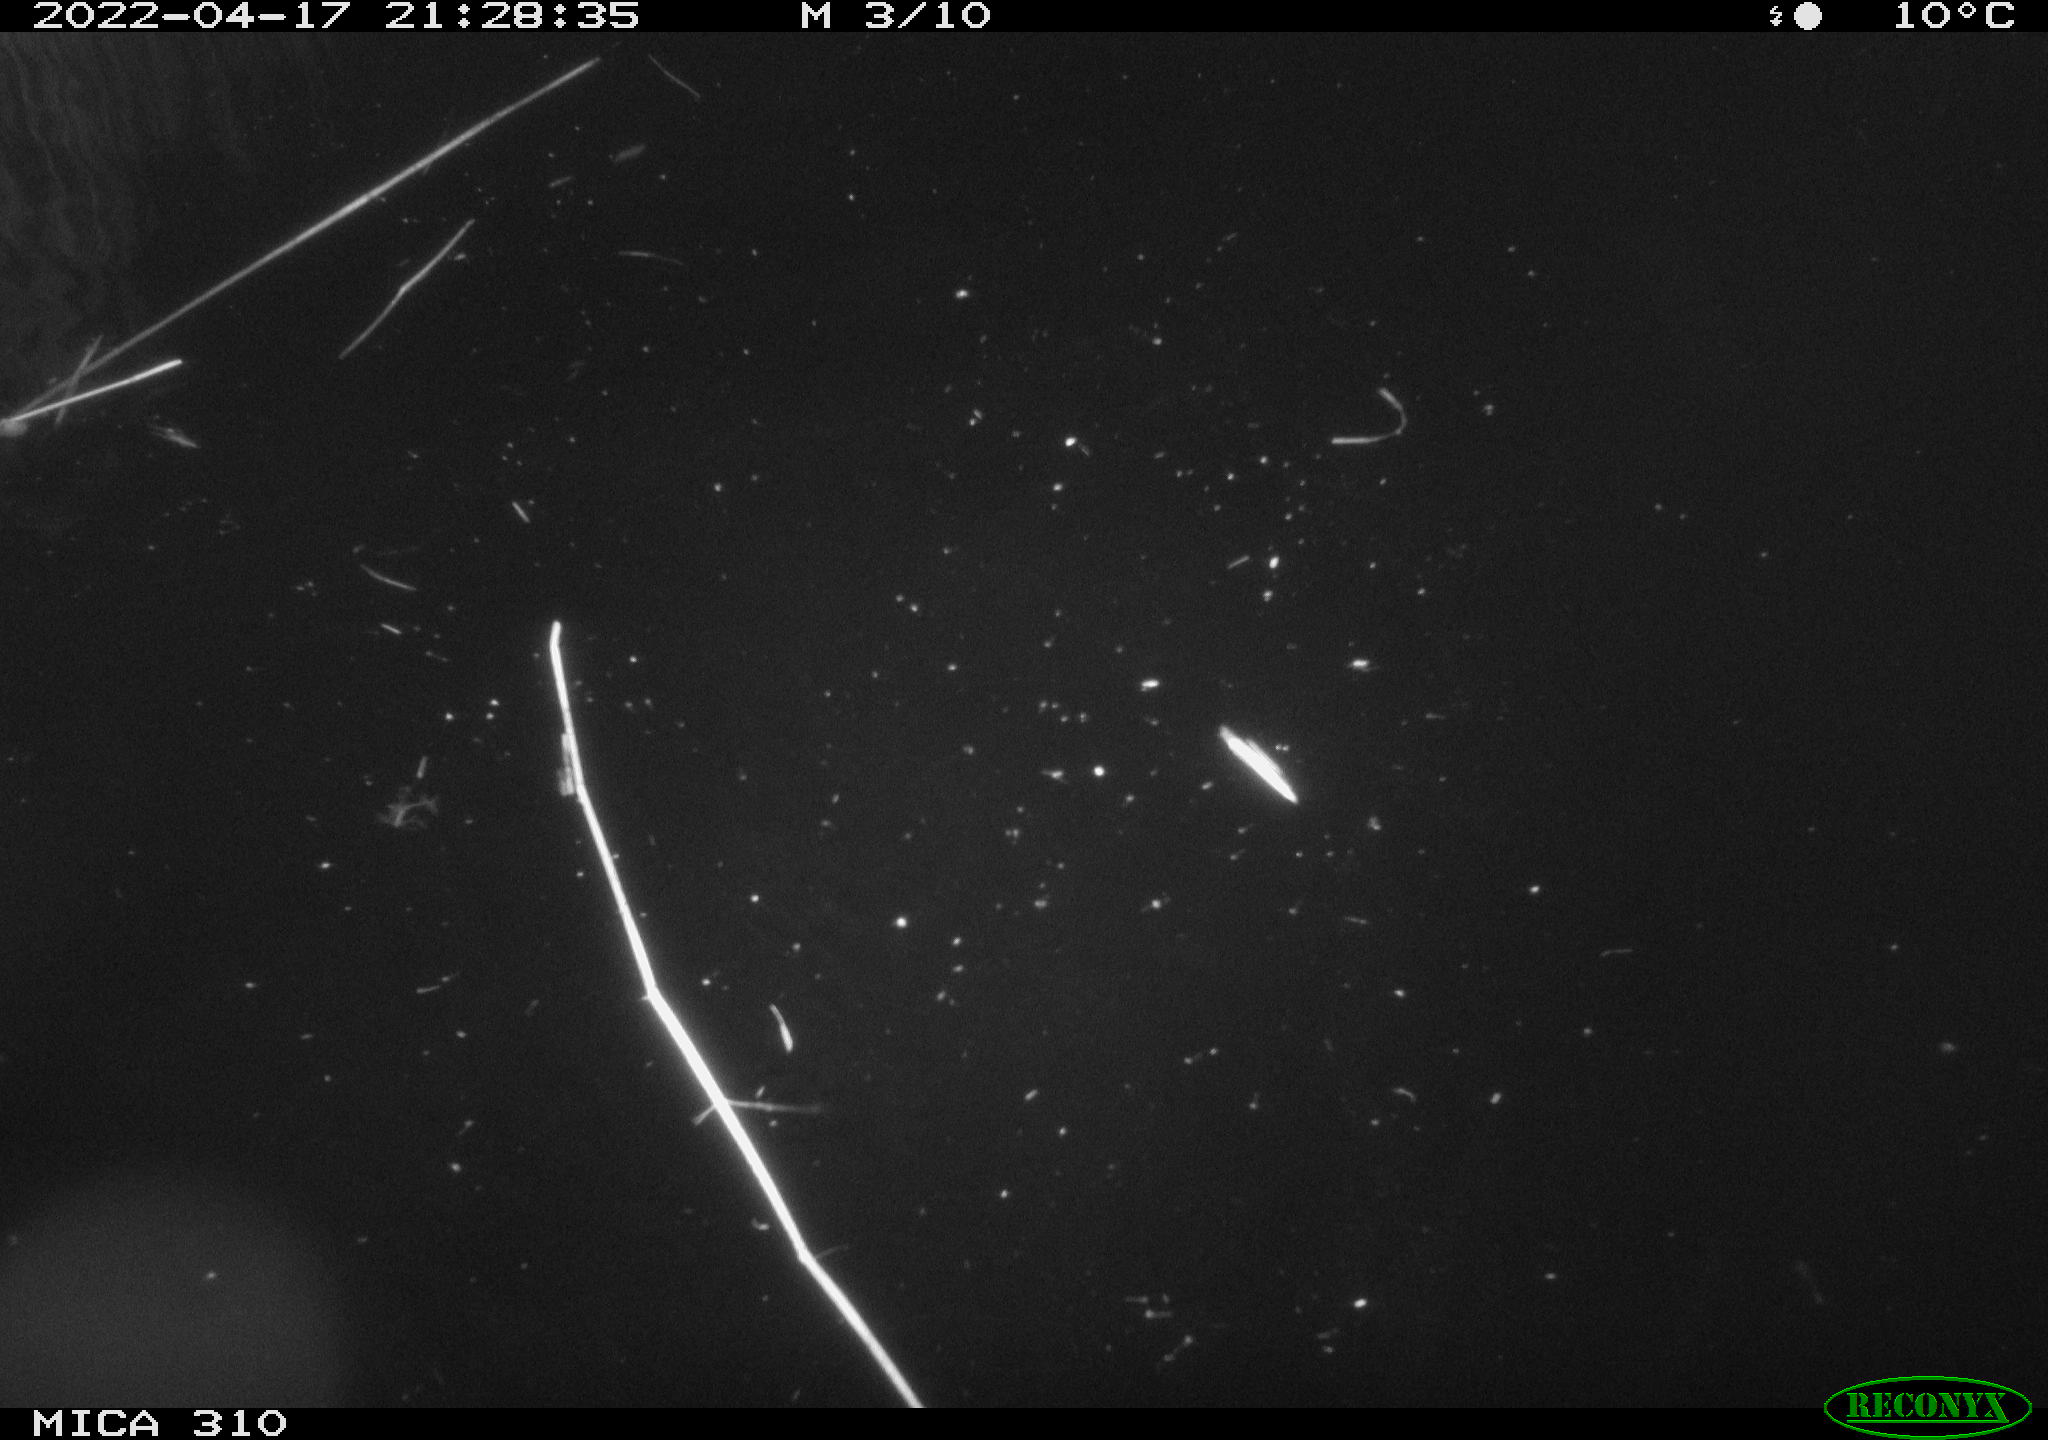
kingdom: Animalia
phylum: Chordata
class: Aves
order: Anseriformes
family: Anatidae
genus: Anas
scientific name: Anas platyrhynchos
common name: Mallard
